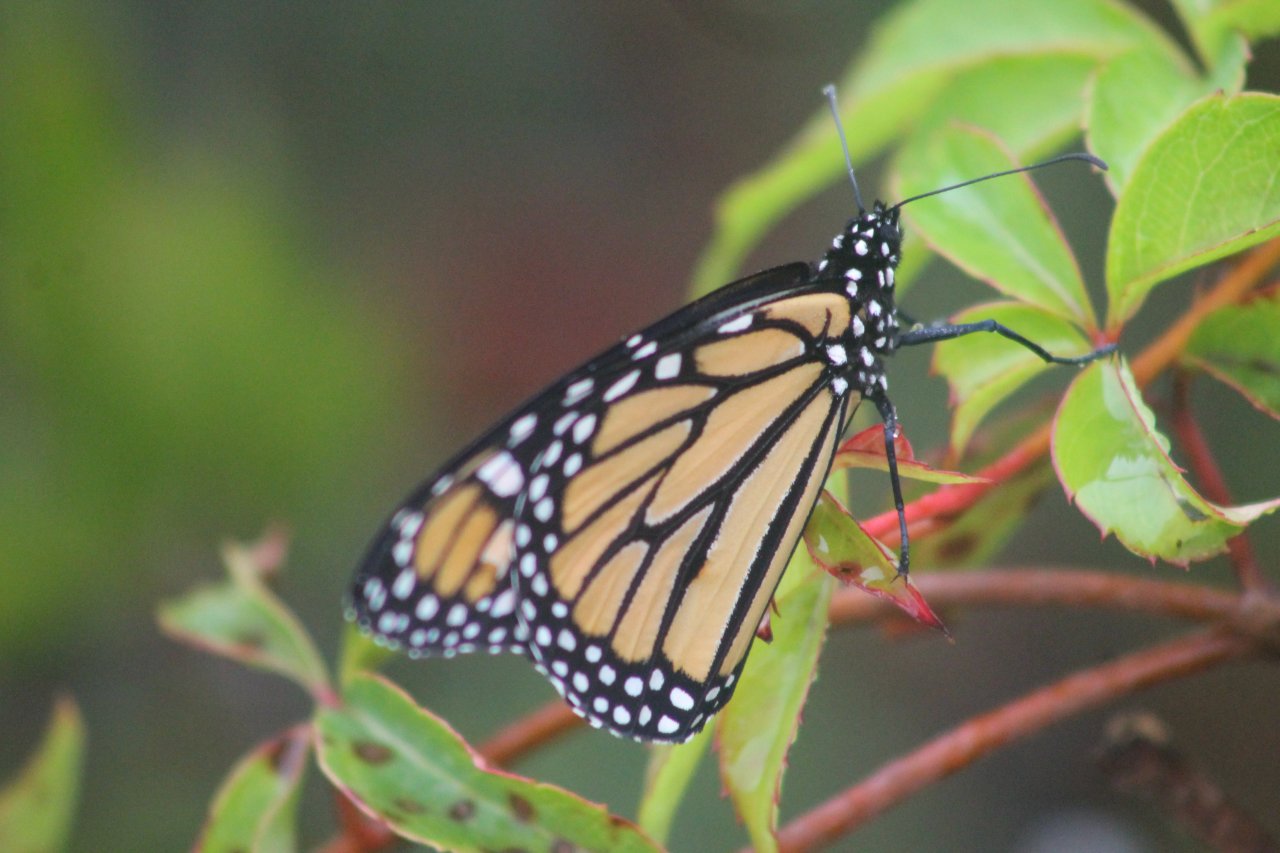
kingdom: Animalia
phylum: Arthropoda
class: Insecta
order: Lepidoptera
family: Nymphalidae
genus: Danaus
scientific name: Danaus plexippus
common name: Monarch
